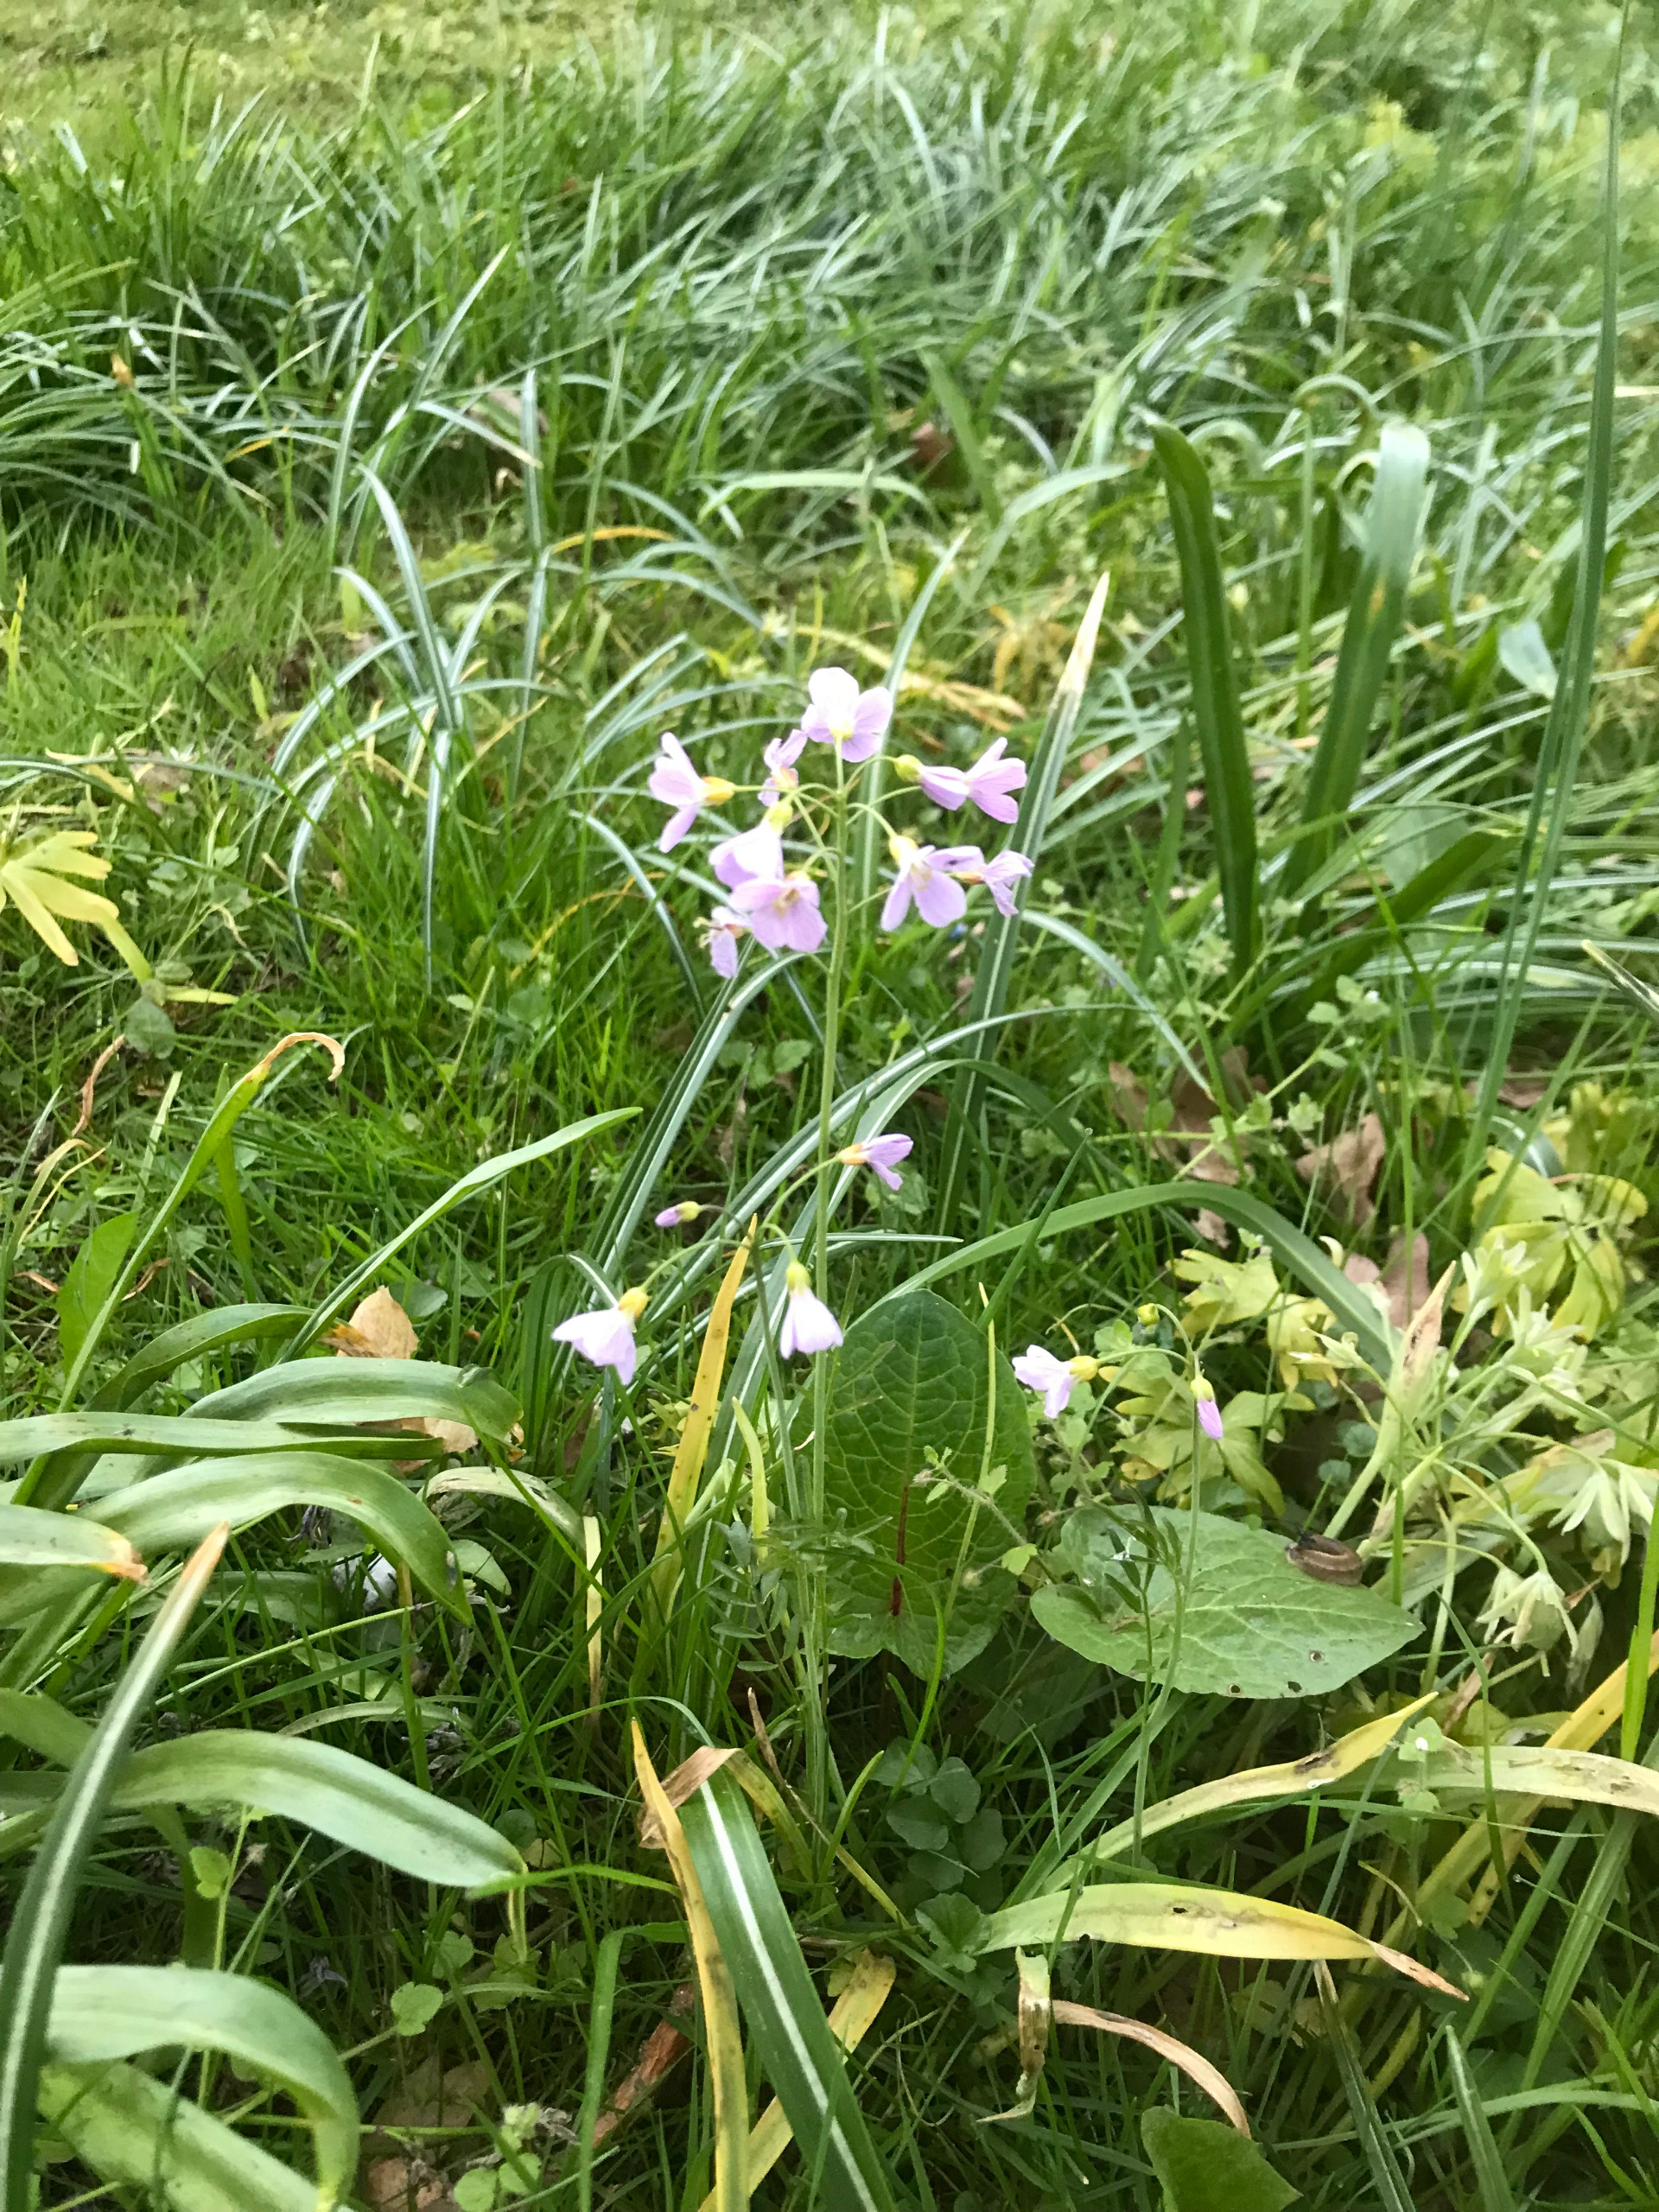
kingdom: Plantae
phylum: Tracheophyta
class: Magnoliopsida
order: Brassicales
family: Brassicaceae
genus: Cardamine
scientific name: Cardamine pratensis
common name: Engkarse
